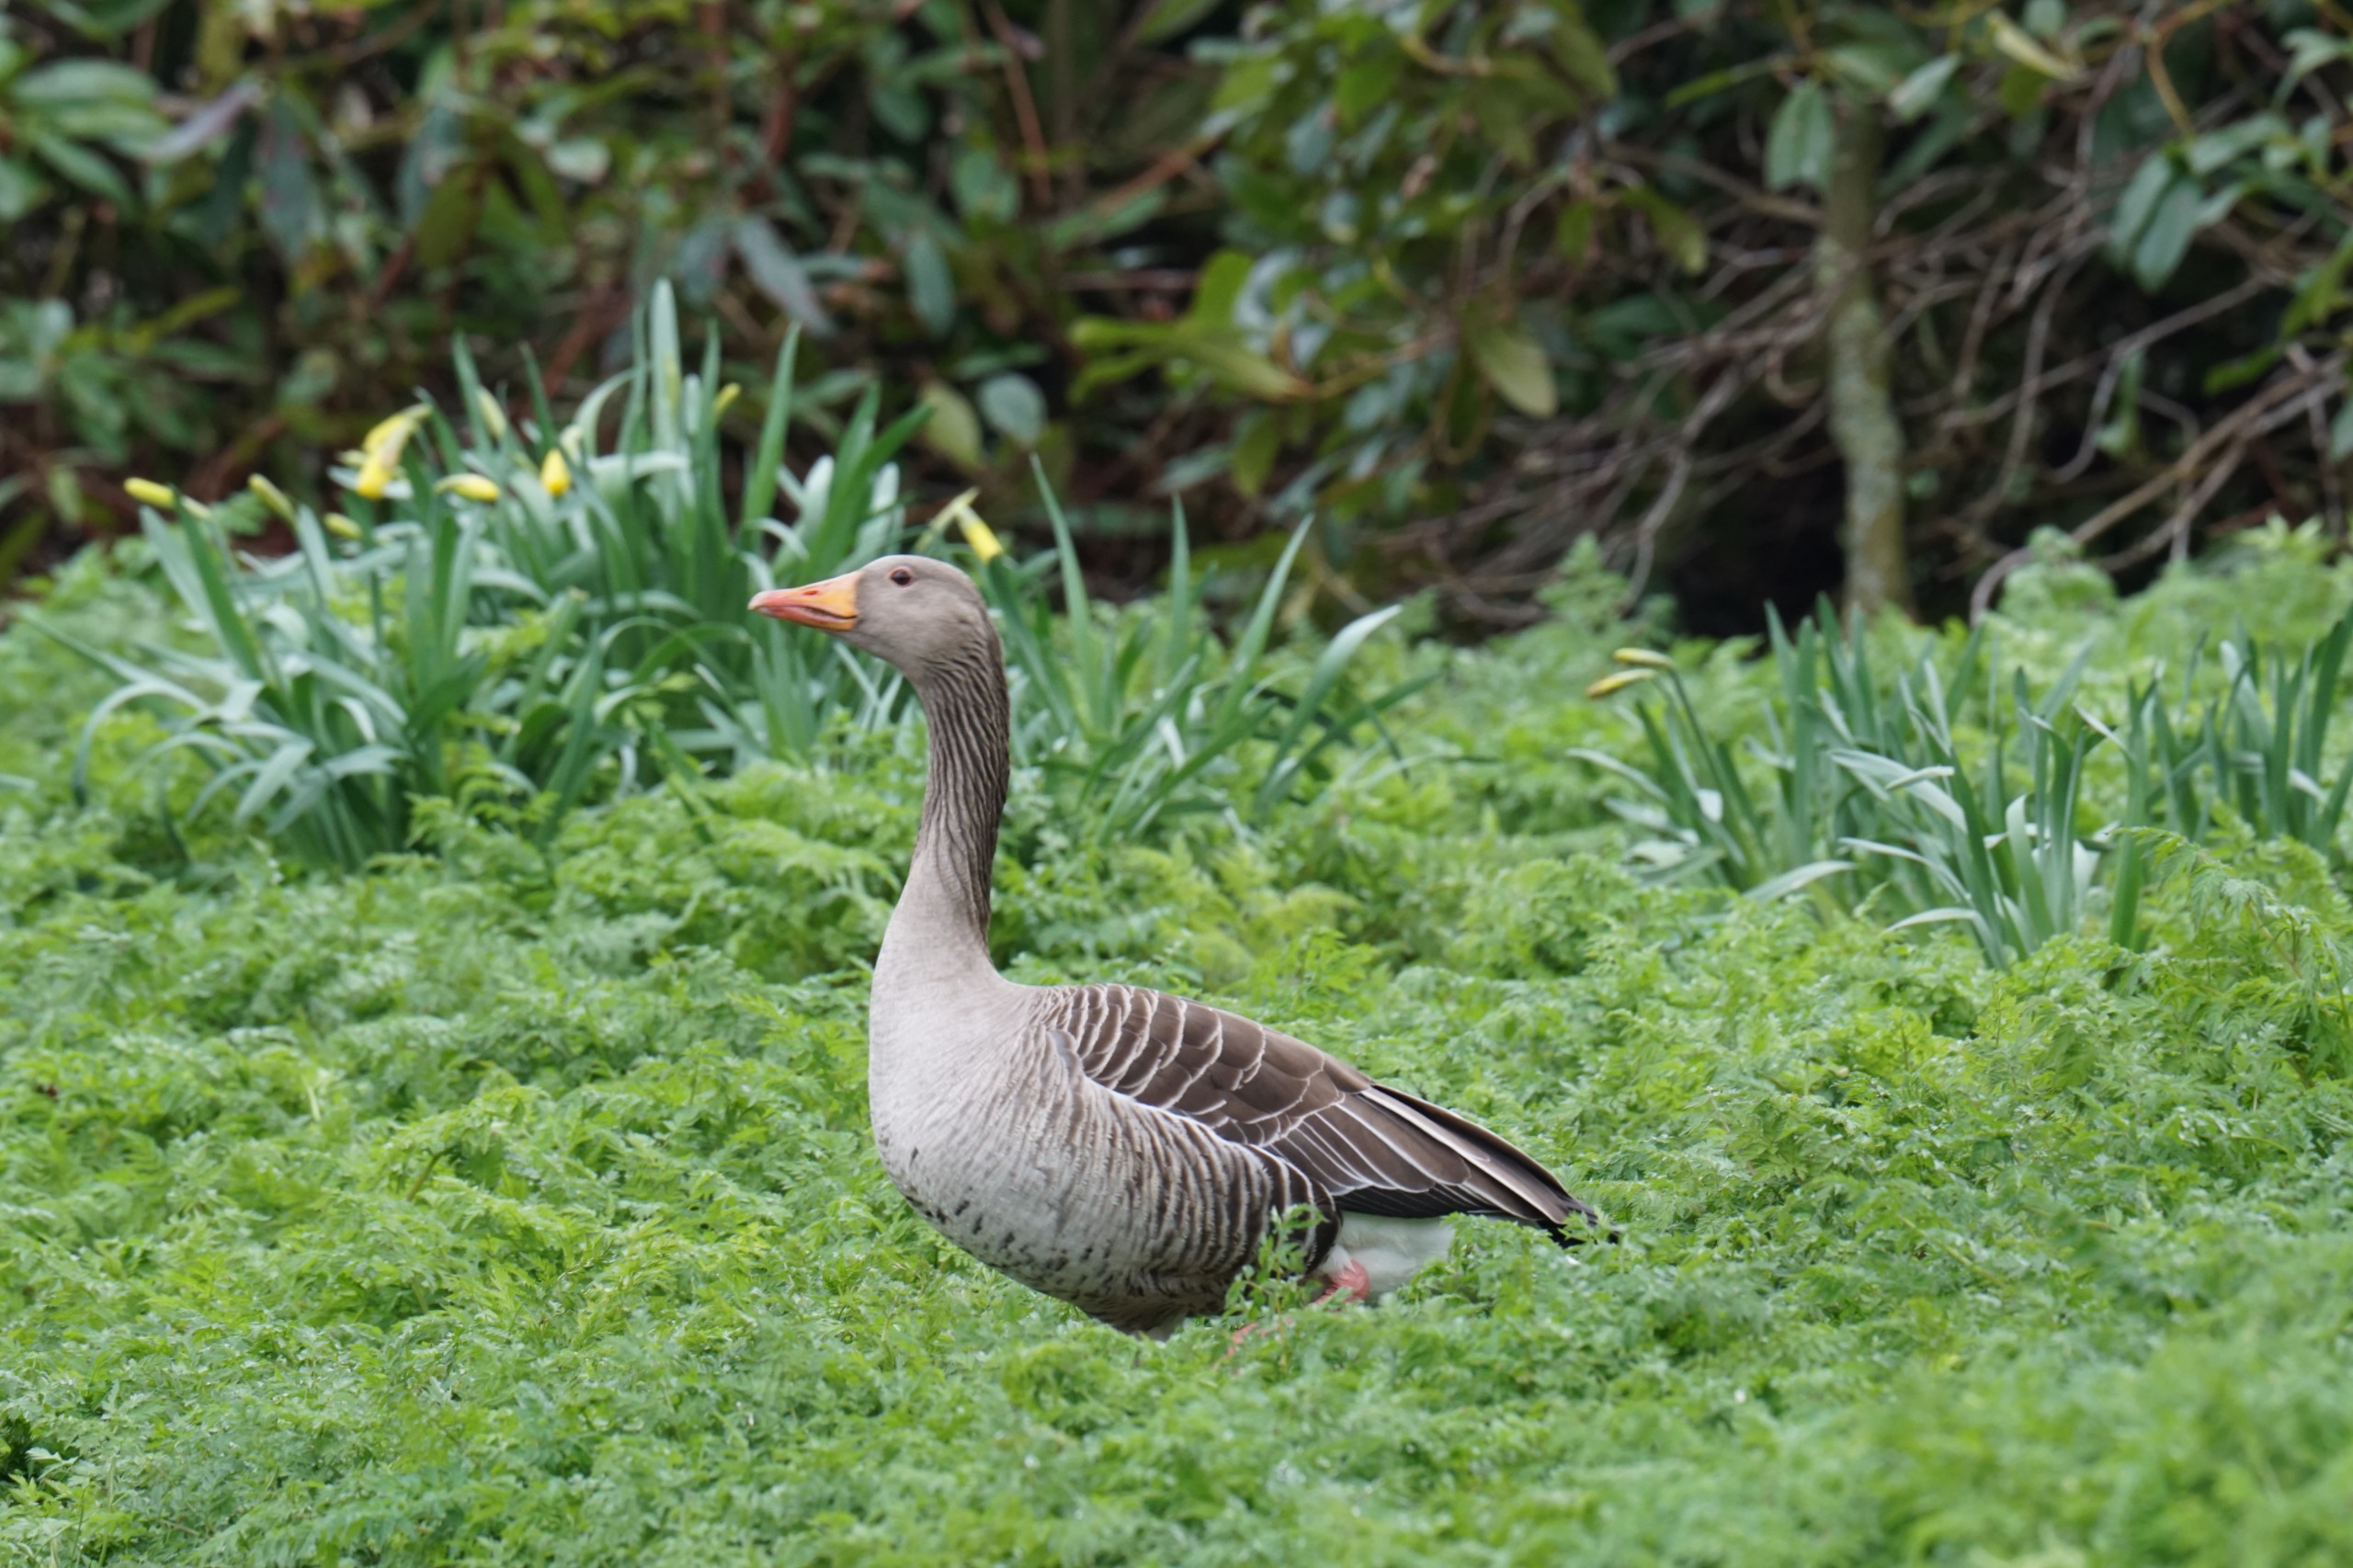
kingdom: Animalia
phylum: Chordata
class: Aves
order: Anseriformes
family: Anatidae
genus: Anser
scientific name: Anser anser
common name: Grågås
